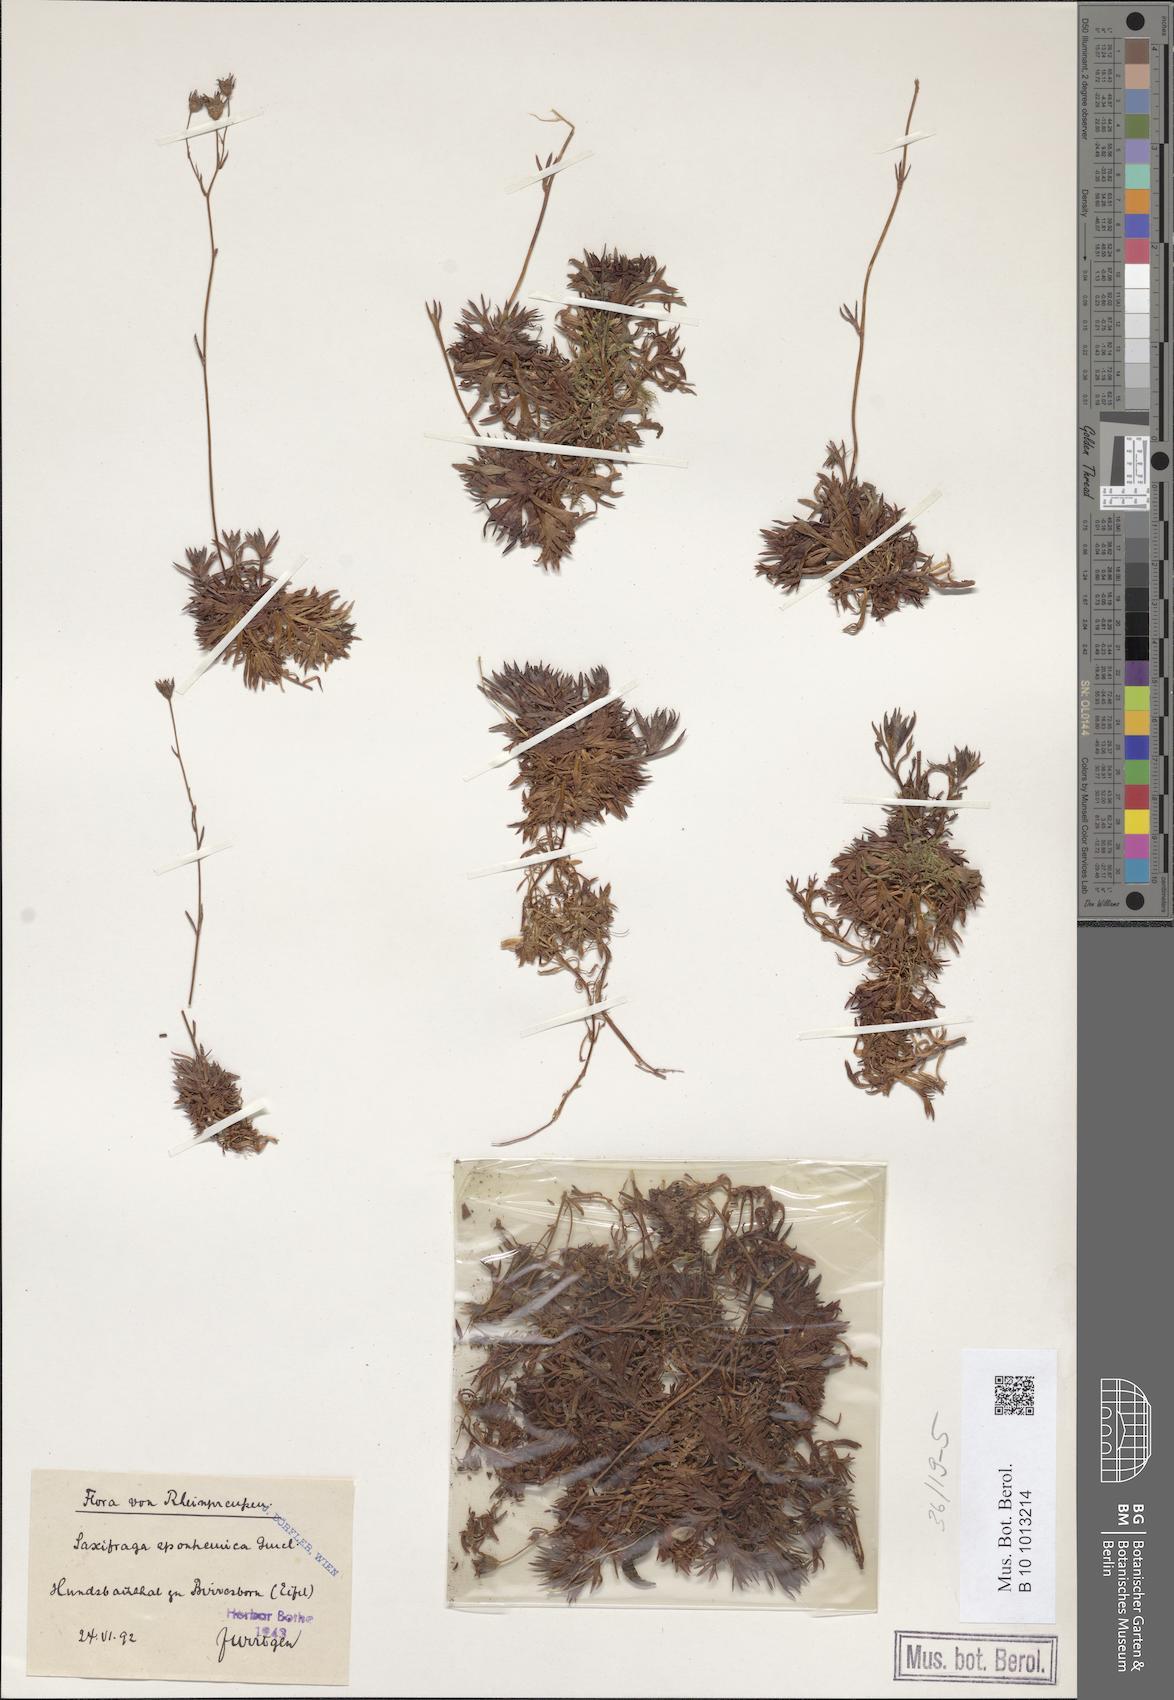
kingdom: Plantae
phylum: Tracheophyta
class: Magnoliopsida
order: Saxifragales
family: Saxifragaceae
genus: Saxifraga
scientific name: Saxifraga rosacea
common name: Irish saxifrage
